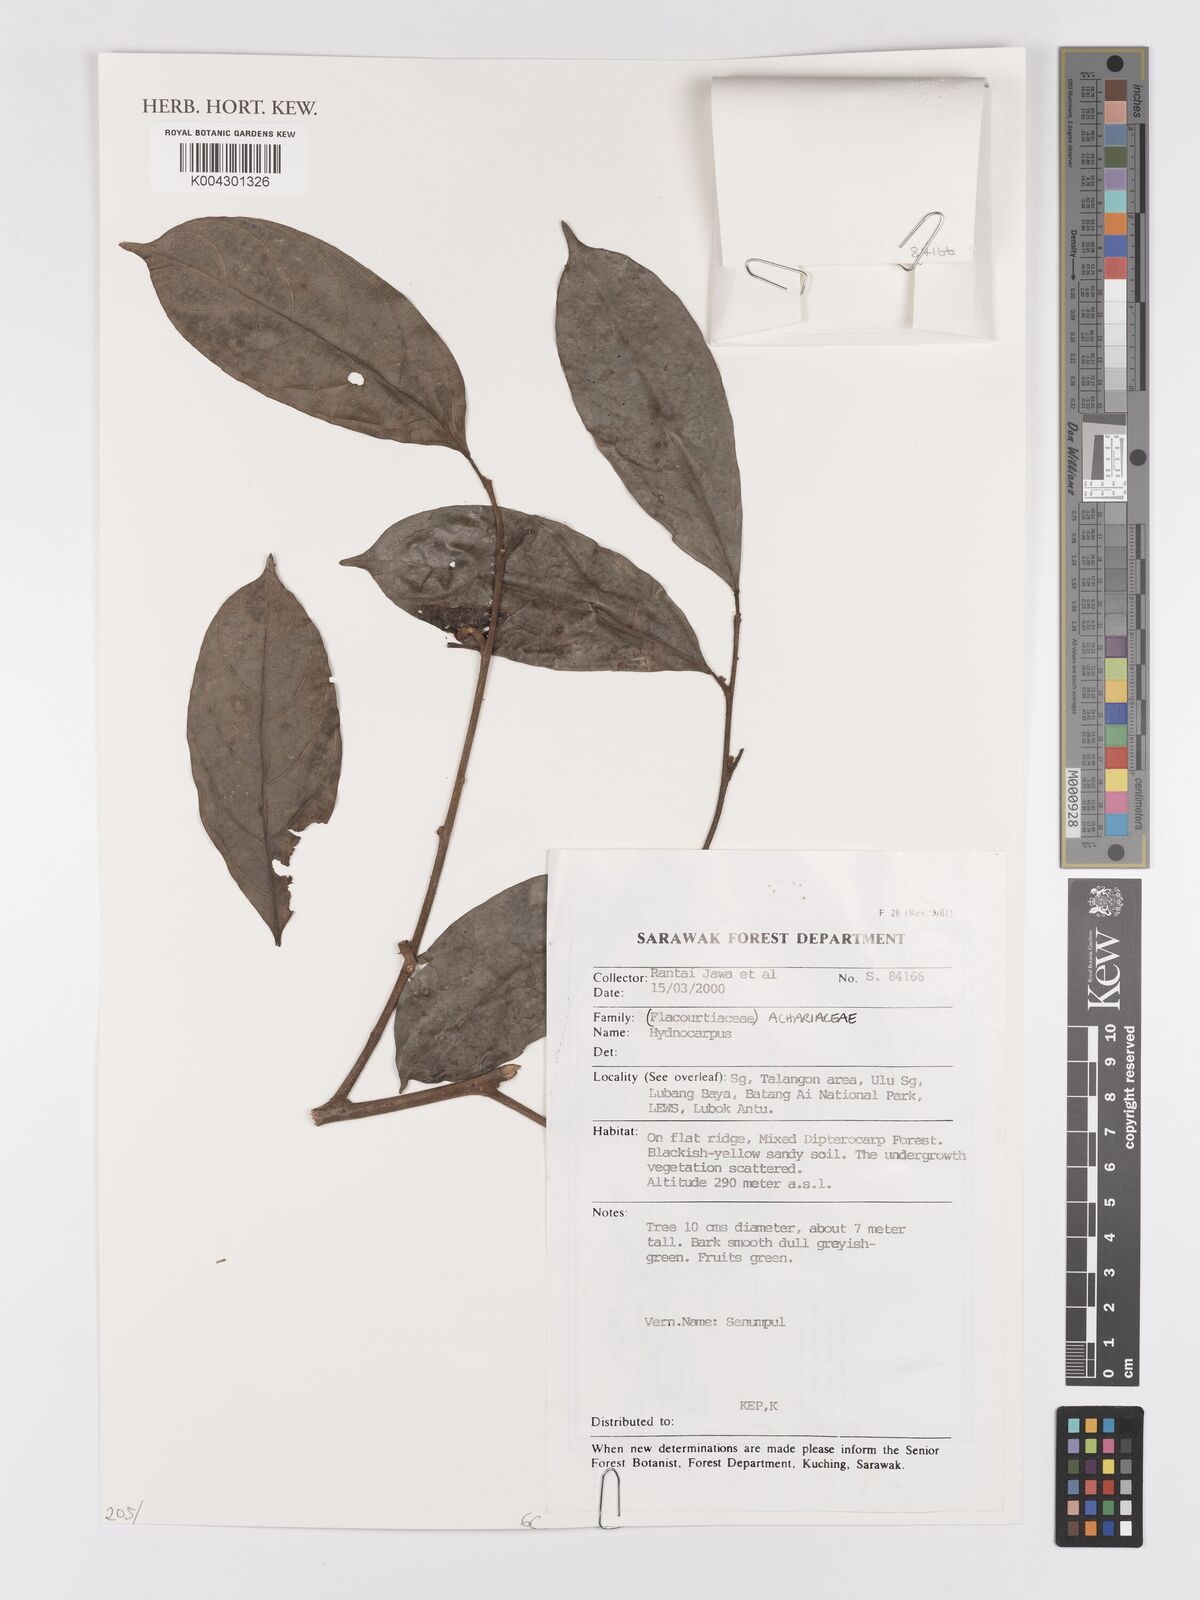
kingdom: Plantae
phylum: Tracheophyta
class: Magnoliopsida
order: Malpighiales
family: Achariaceae
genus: Hydnocarpus
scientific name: Hydnocarpus
